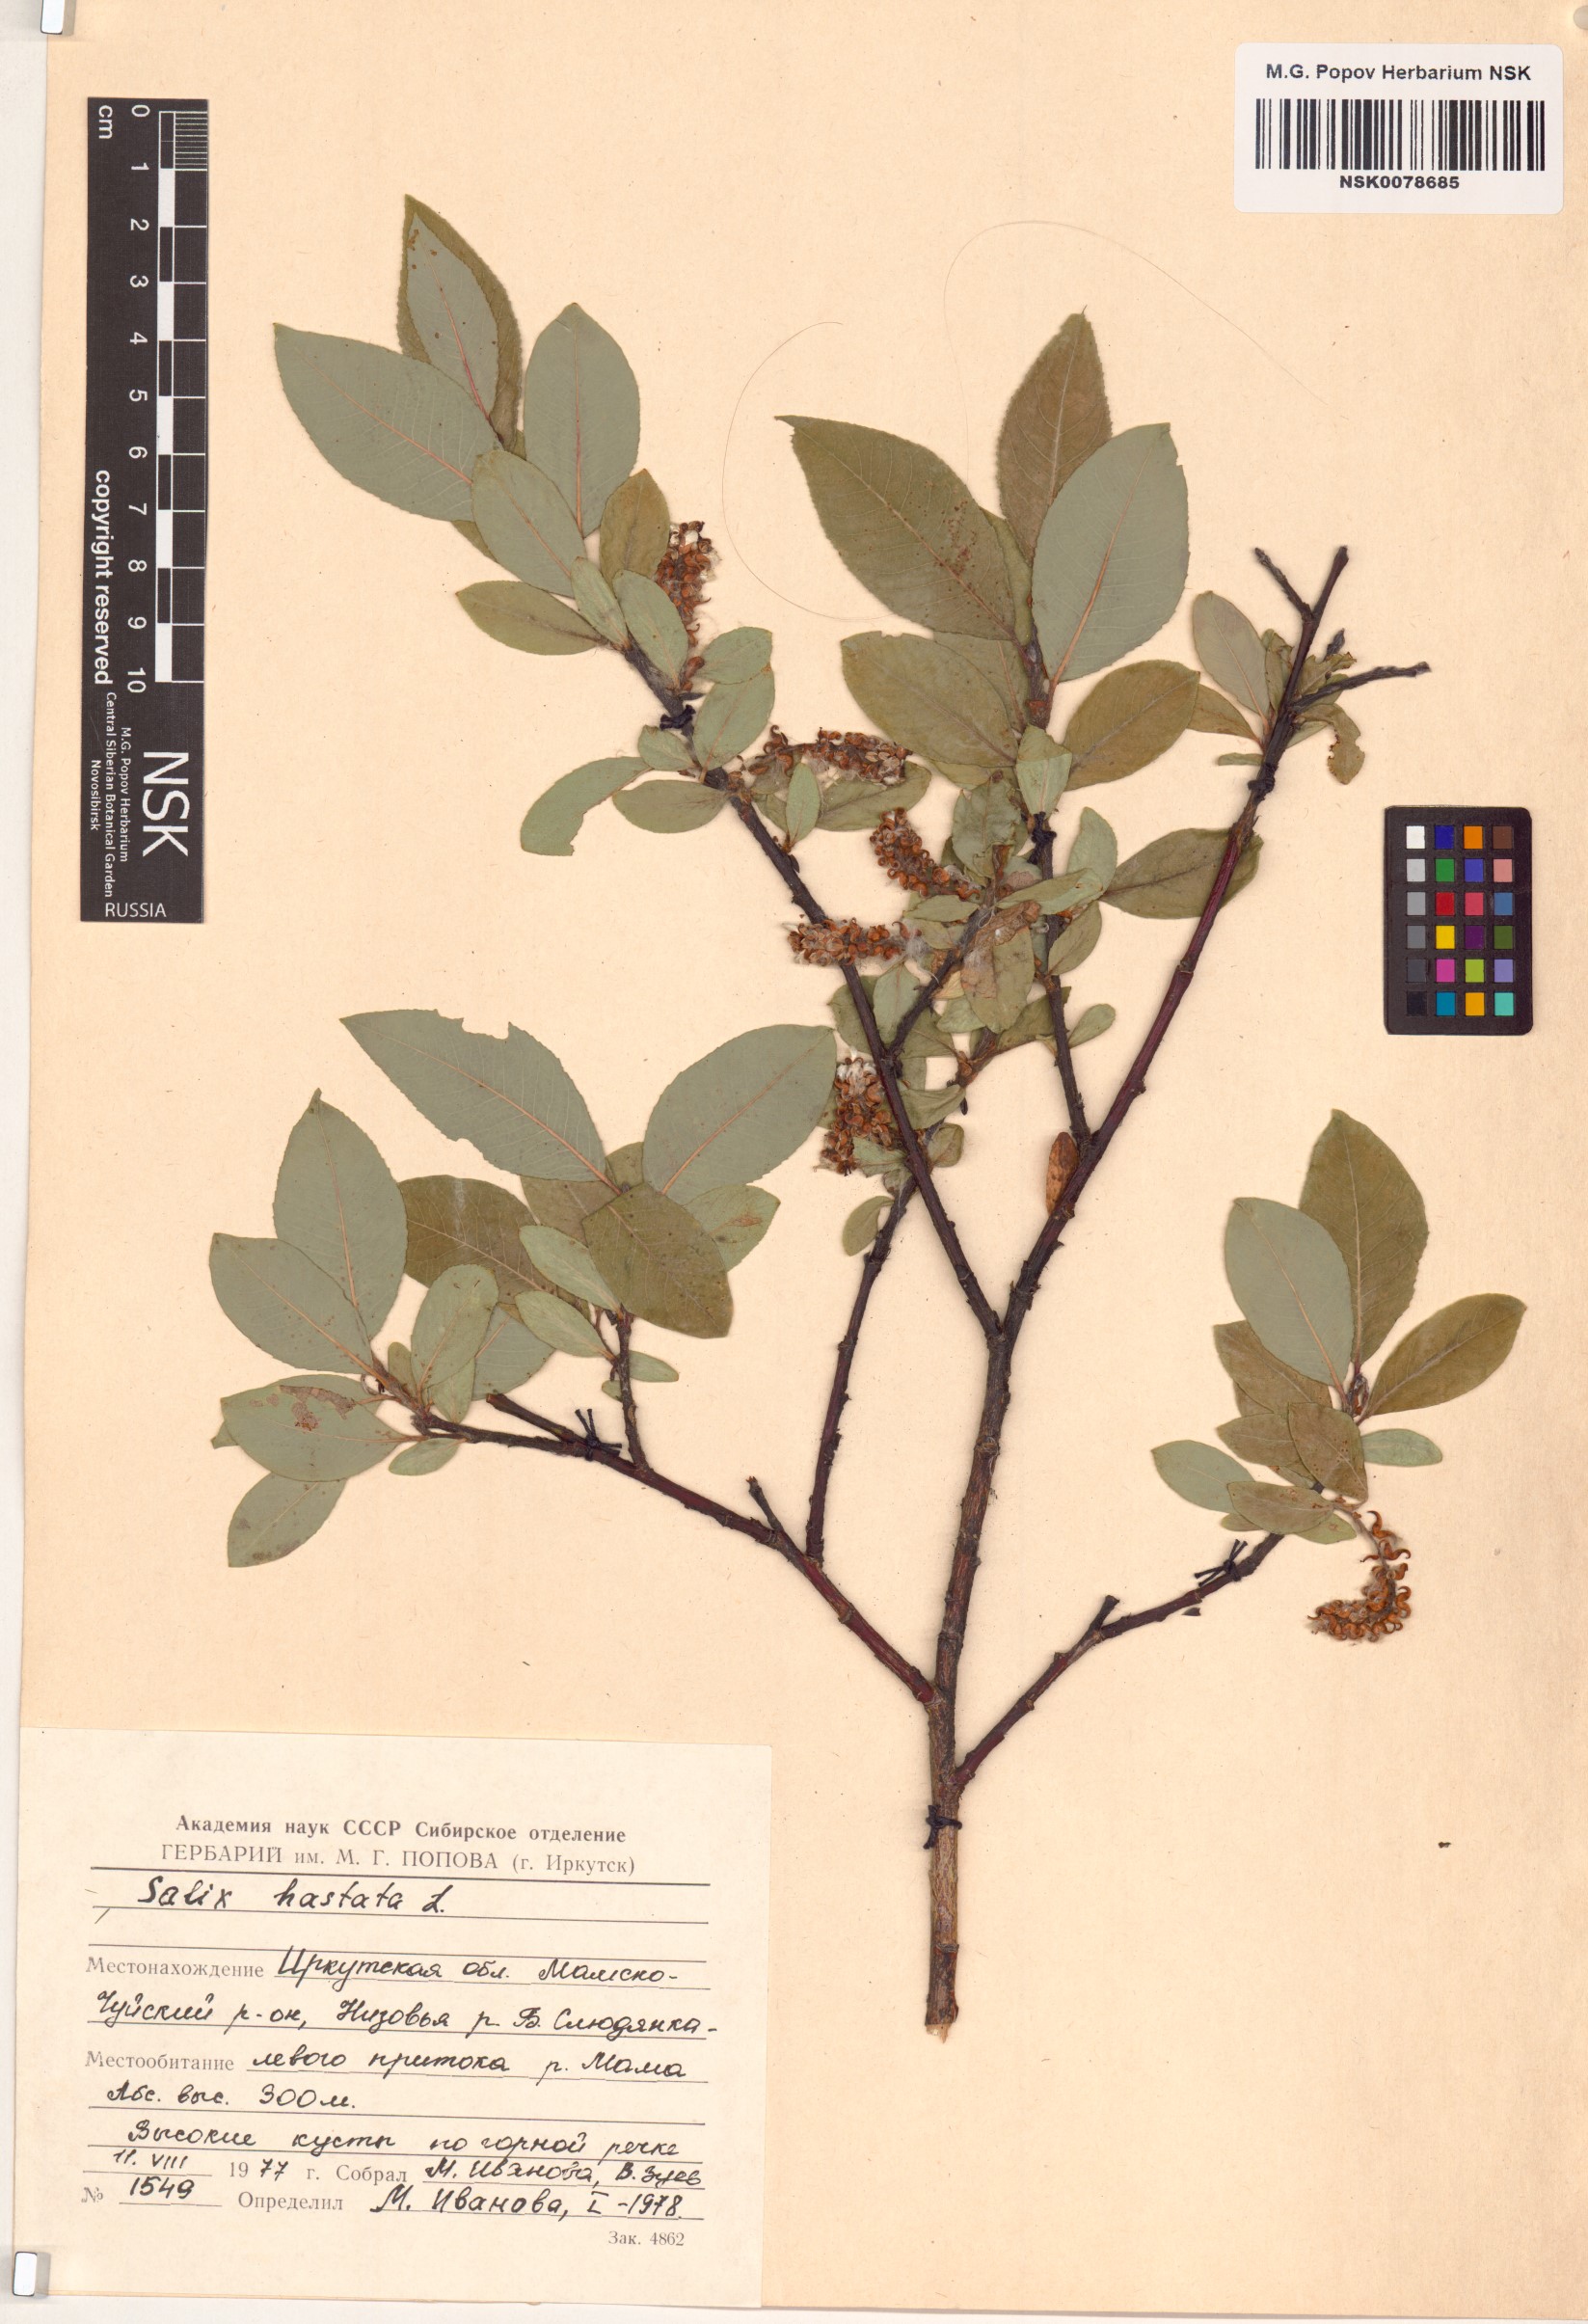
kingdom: Plantae
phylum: Tracheophyta
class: Magnoliopsida
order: Malpighiales
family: Salicaceae
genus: Salix
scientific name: Salix hastata
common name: Halberd willow
